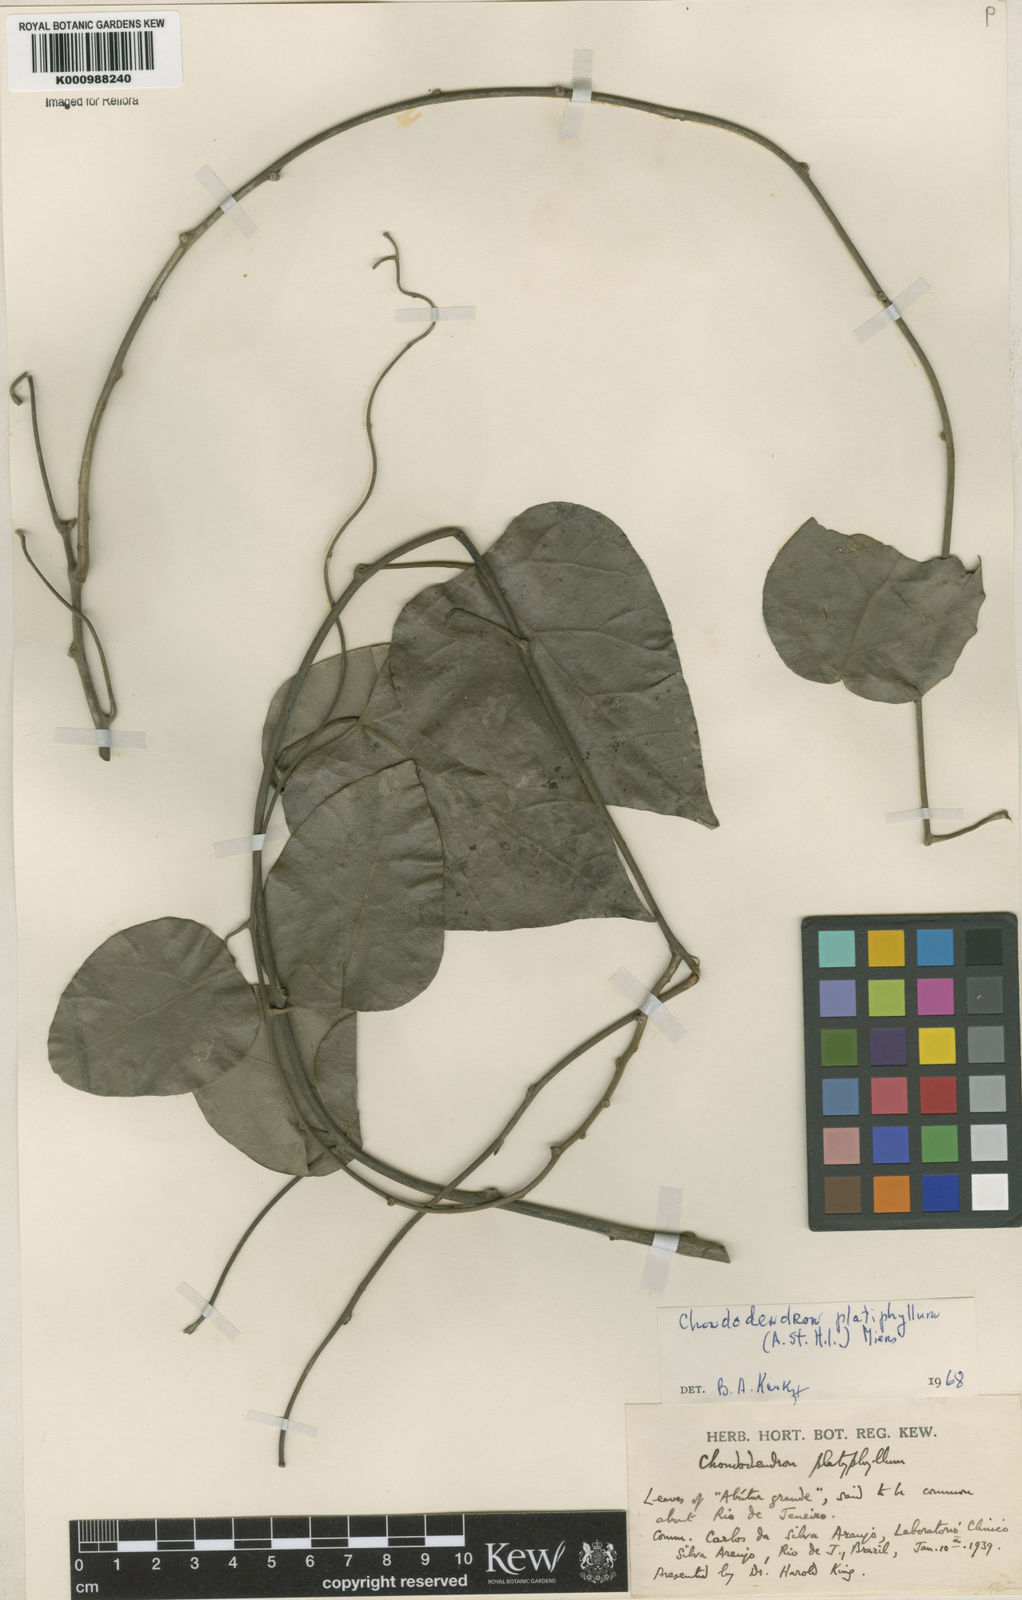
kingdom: Plantae
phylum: Tracheophyta
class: Magnoliopsida
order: Ranunculales
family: Menispermaceae
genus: Chondrodendron
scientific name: Chondrodendron platyphyllum
